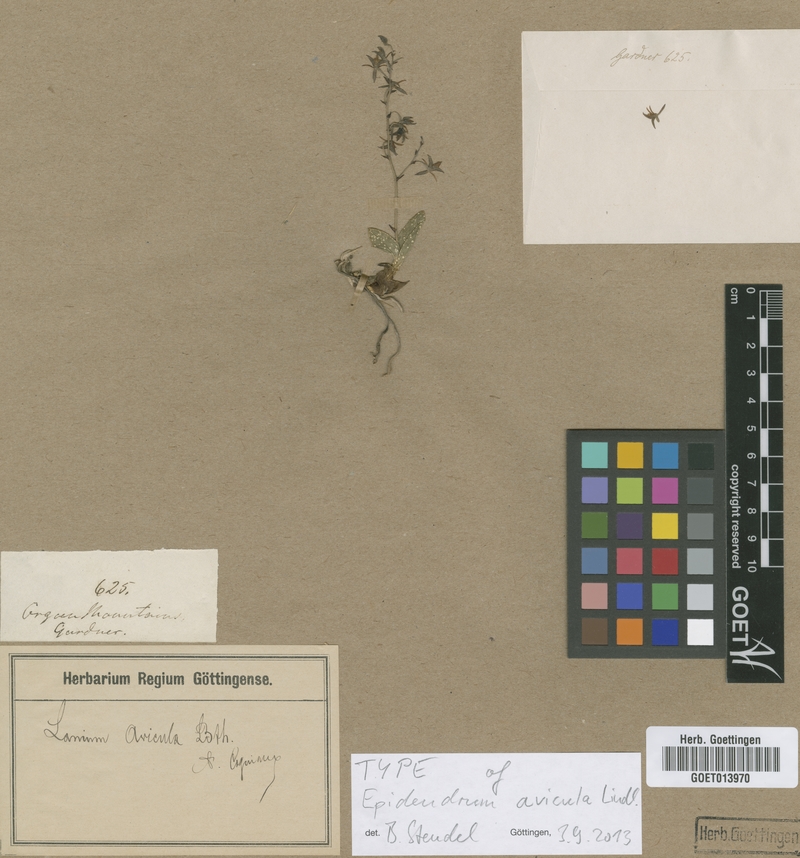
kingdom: Plantae
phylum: Tracheophyta
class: Liliopsida
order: Asparagales
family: Orchidaceae
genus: Epidendrum
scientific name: Epidendrum avicula
